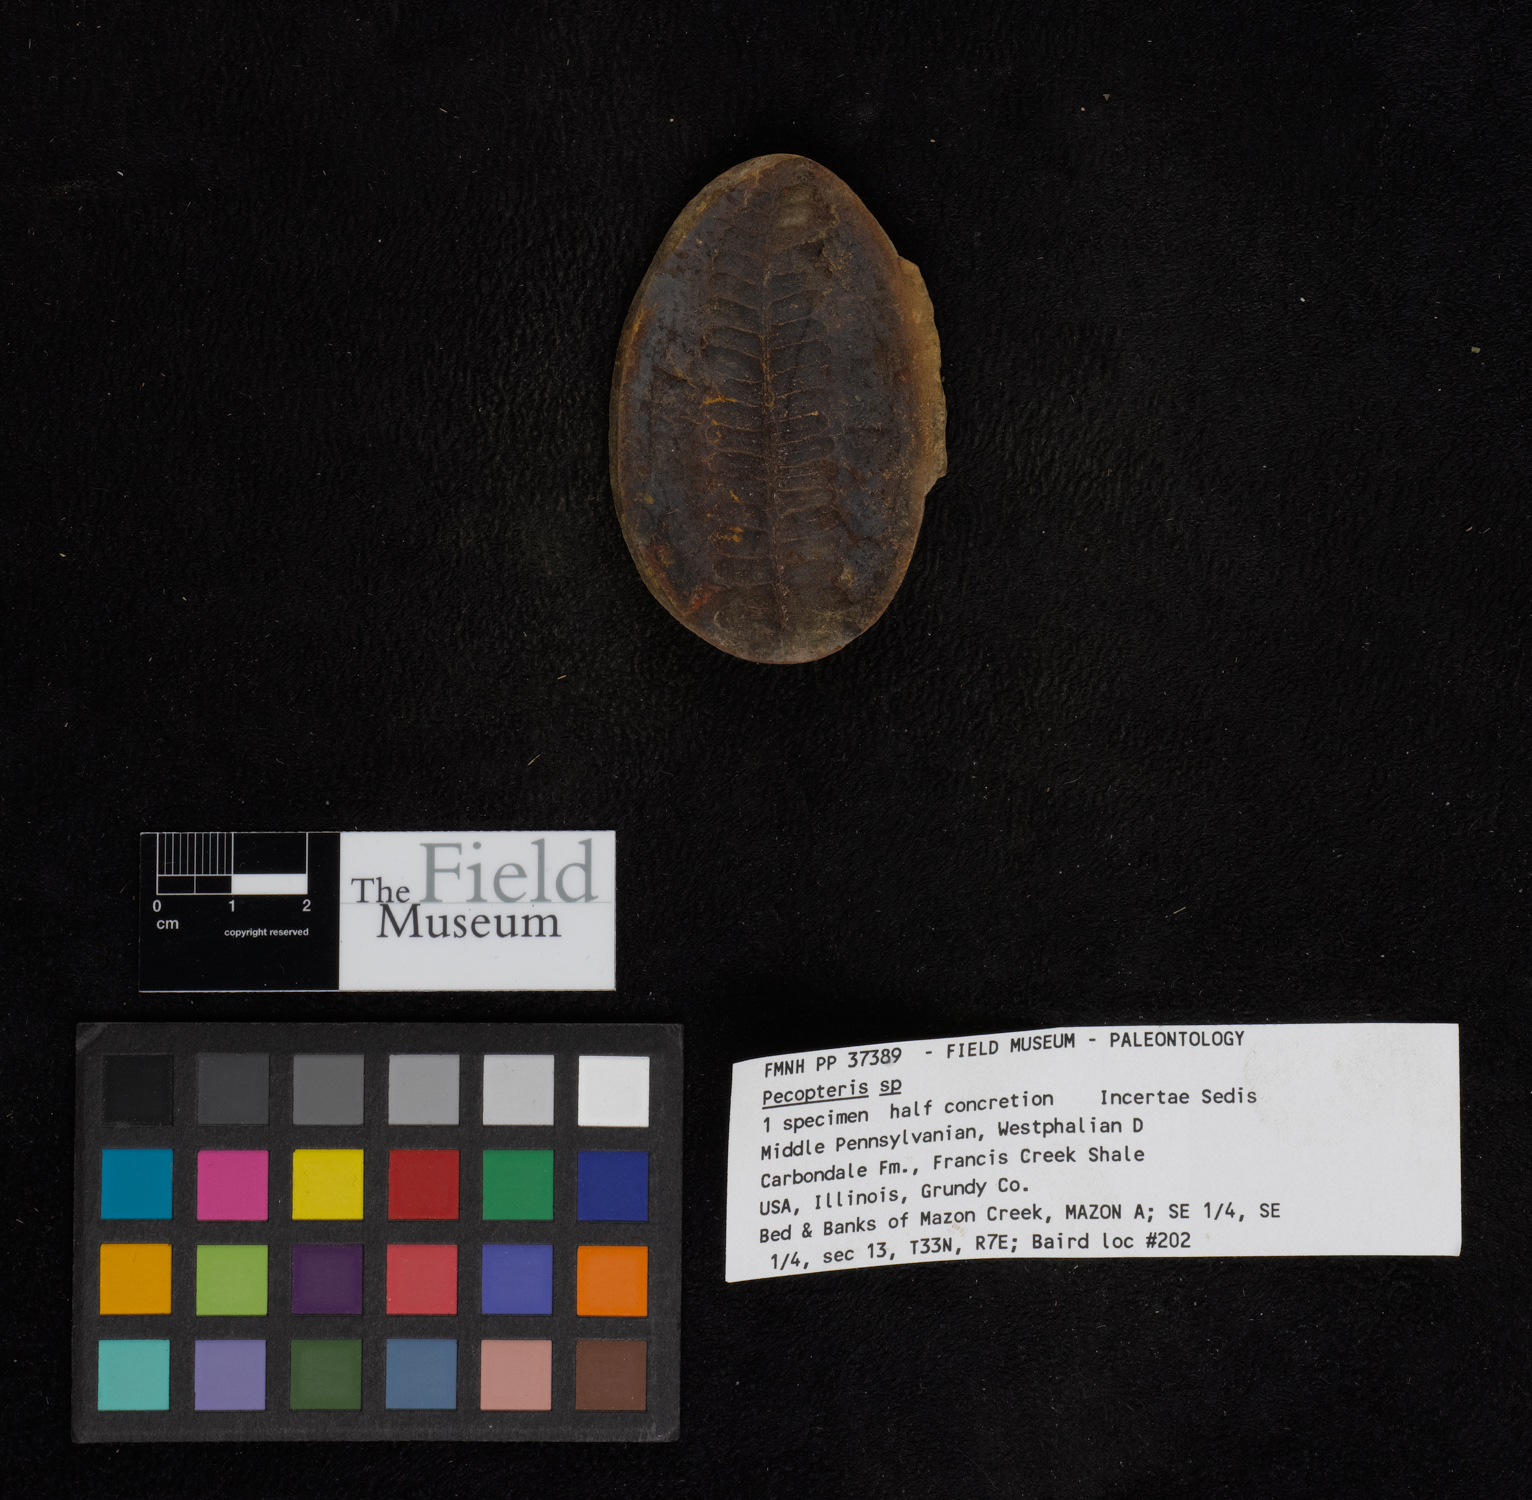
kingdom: Plantae
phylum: Tracheophyta
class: Polypodiopsida
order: Marattiales
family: Asterothecaceae
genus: Pecopteris
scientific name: Pecopteris
